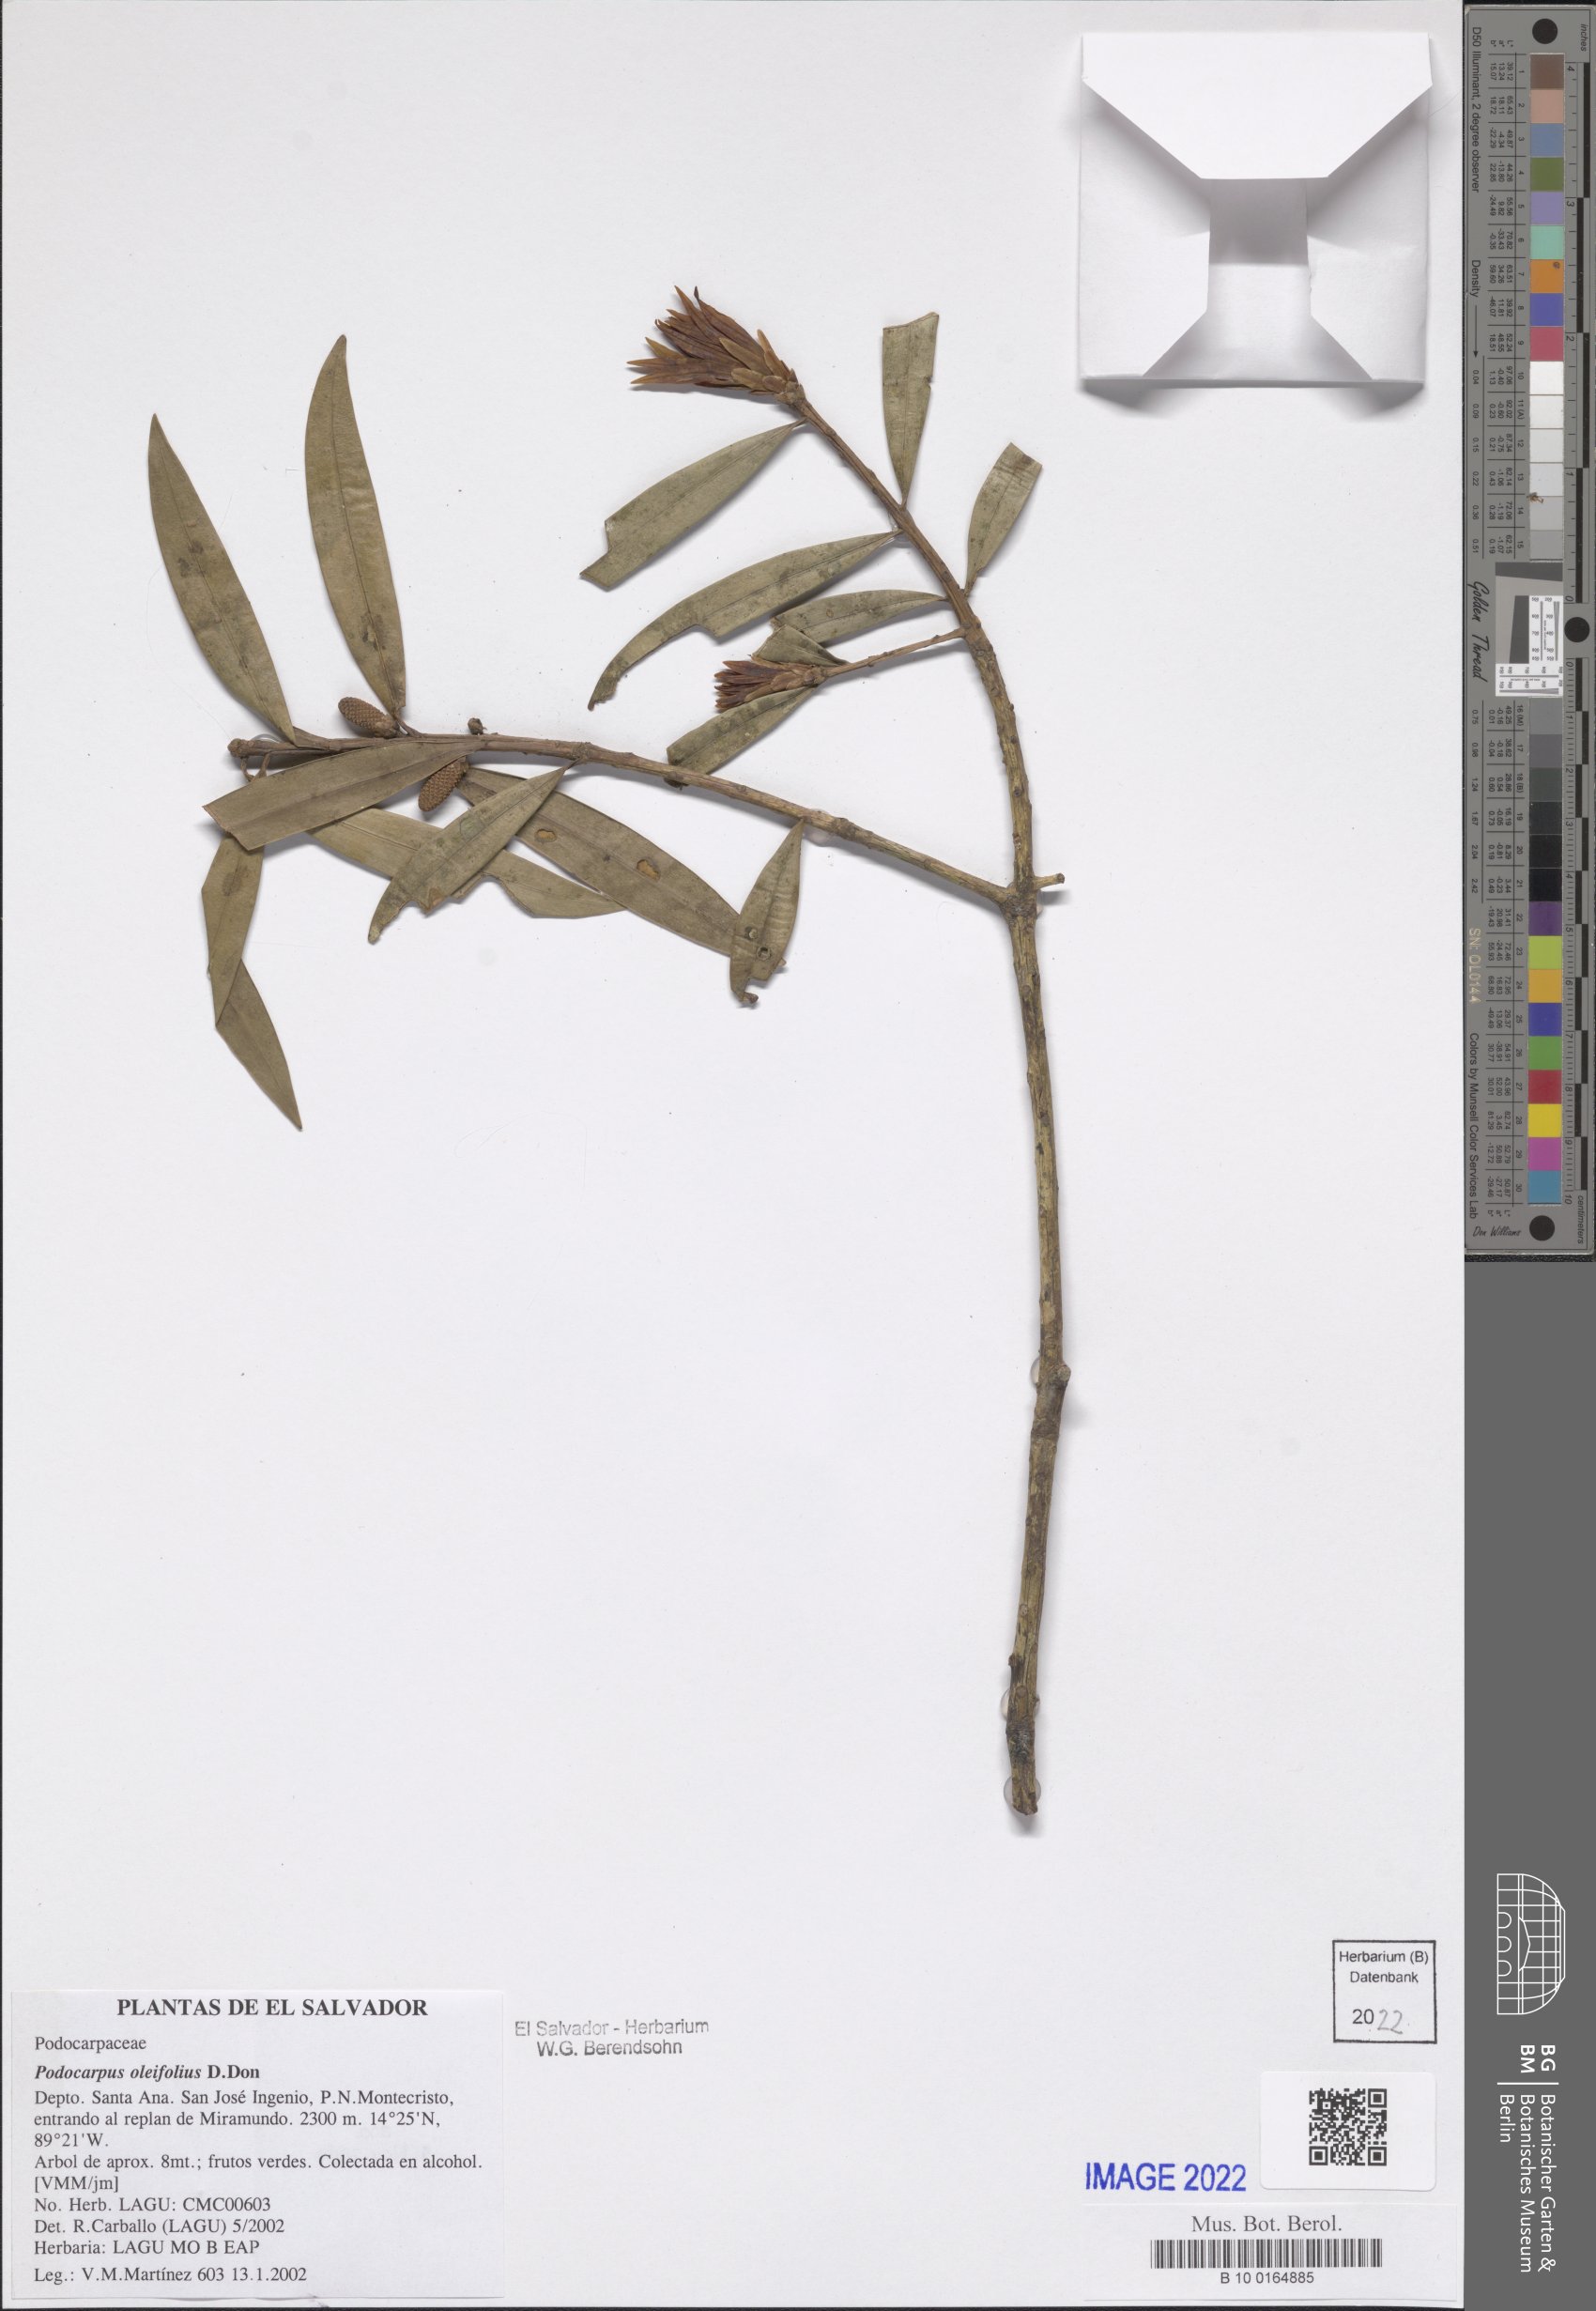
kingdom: Plantae
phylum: Tracheophyta
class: Pinopsida
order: Pinales
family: Podocarpaceae
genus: Podocarpus
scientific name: Podocarpus oleifolius
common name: Olive-leaf podoberry
